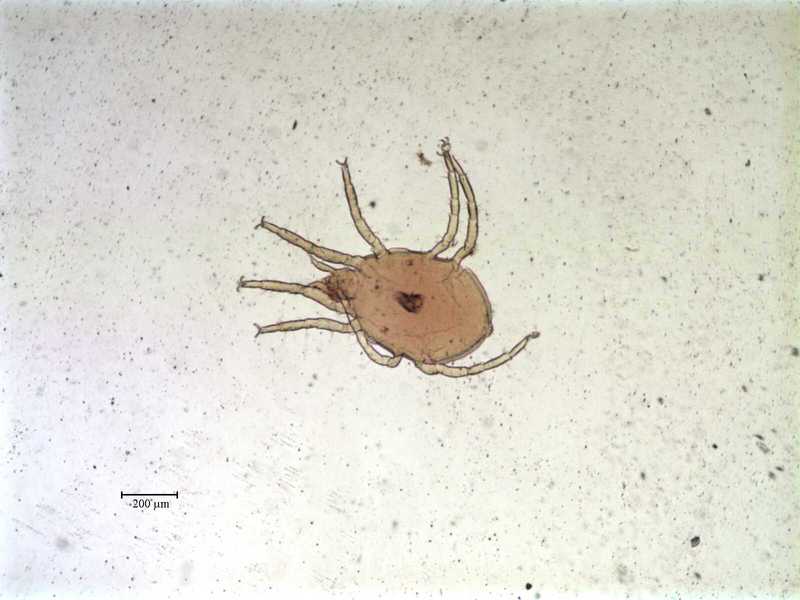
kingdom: Animalia
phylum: Arthropoda
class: Arachnida
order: Trombidiformes
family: Halacaridae
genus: Thalassarachna
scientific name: Thalassarachna affinis
